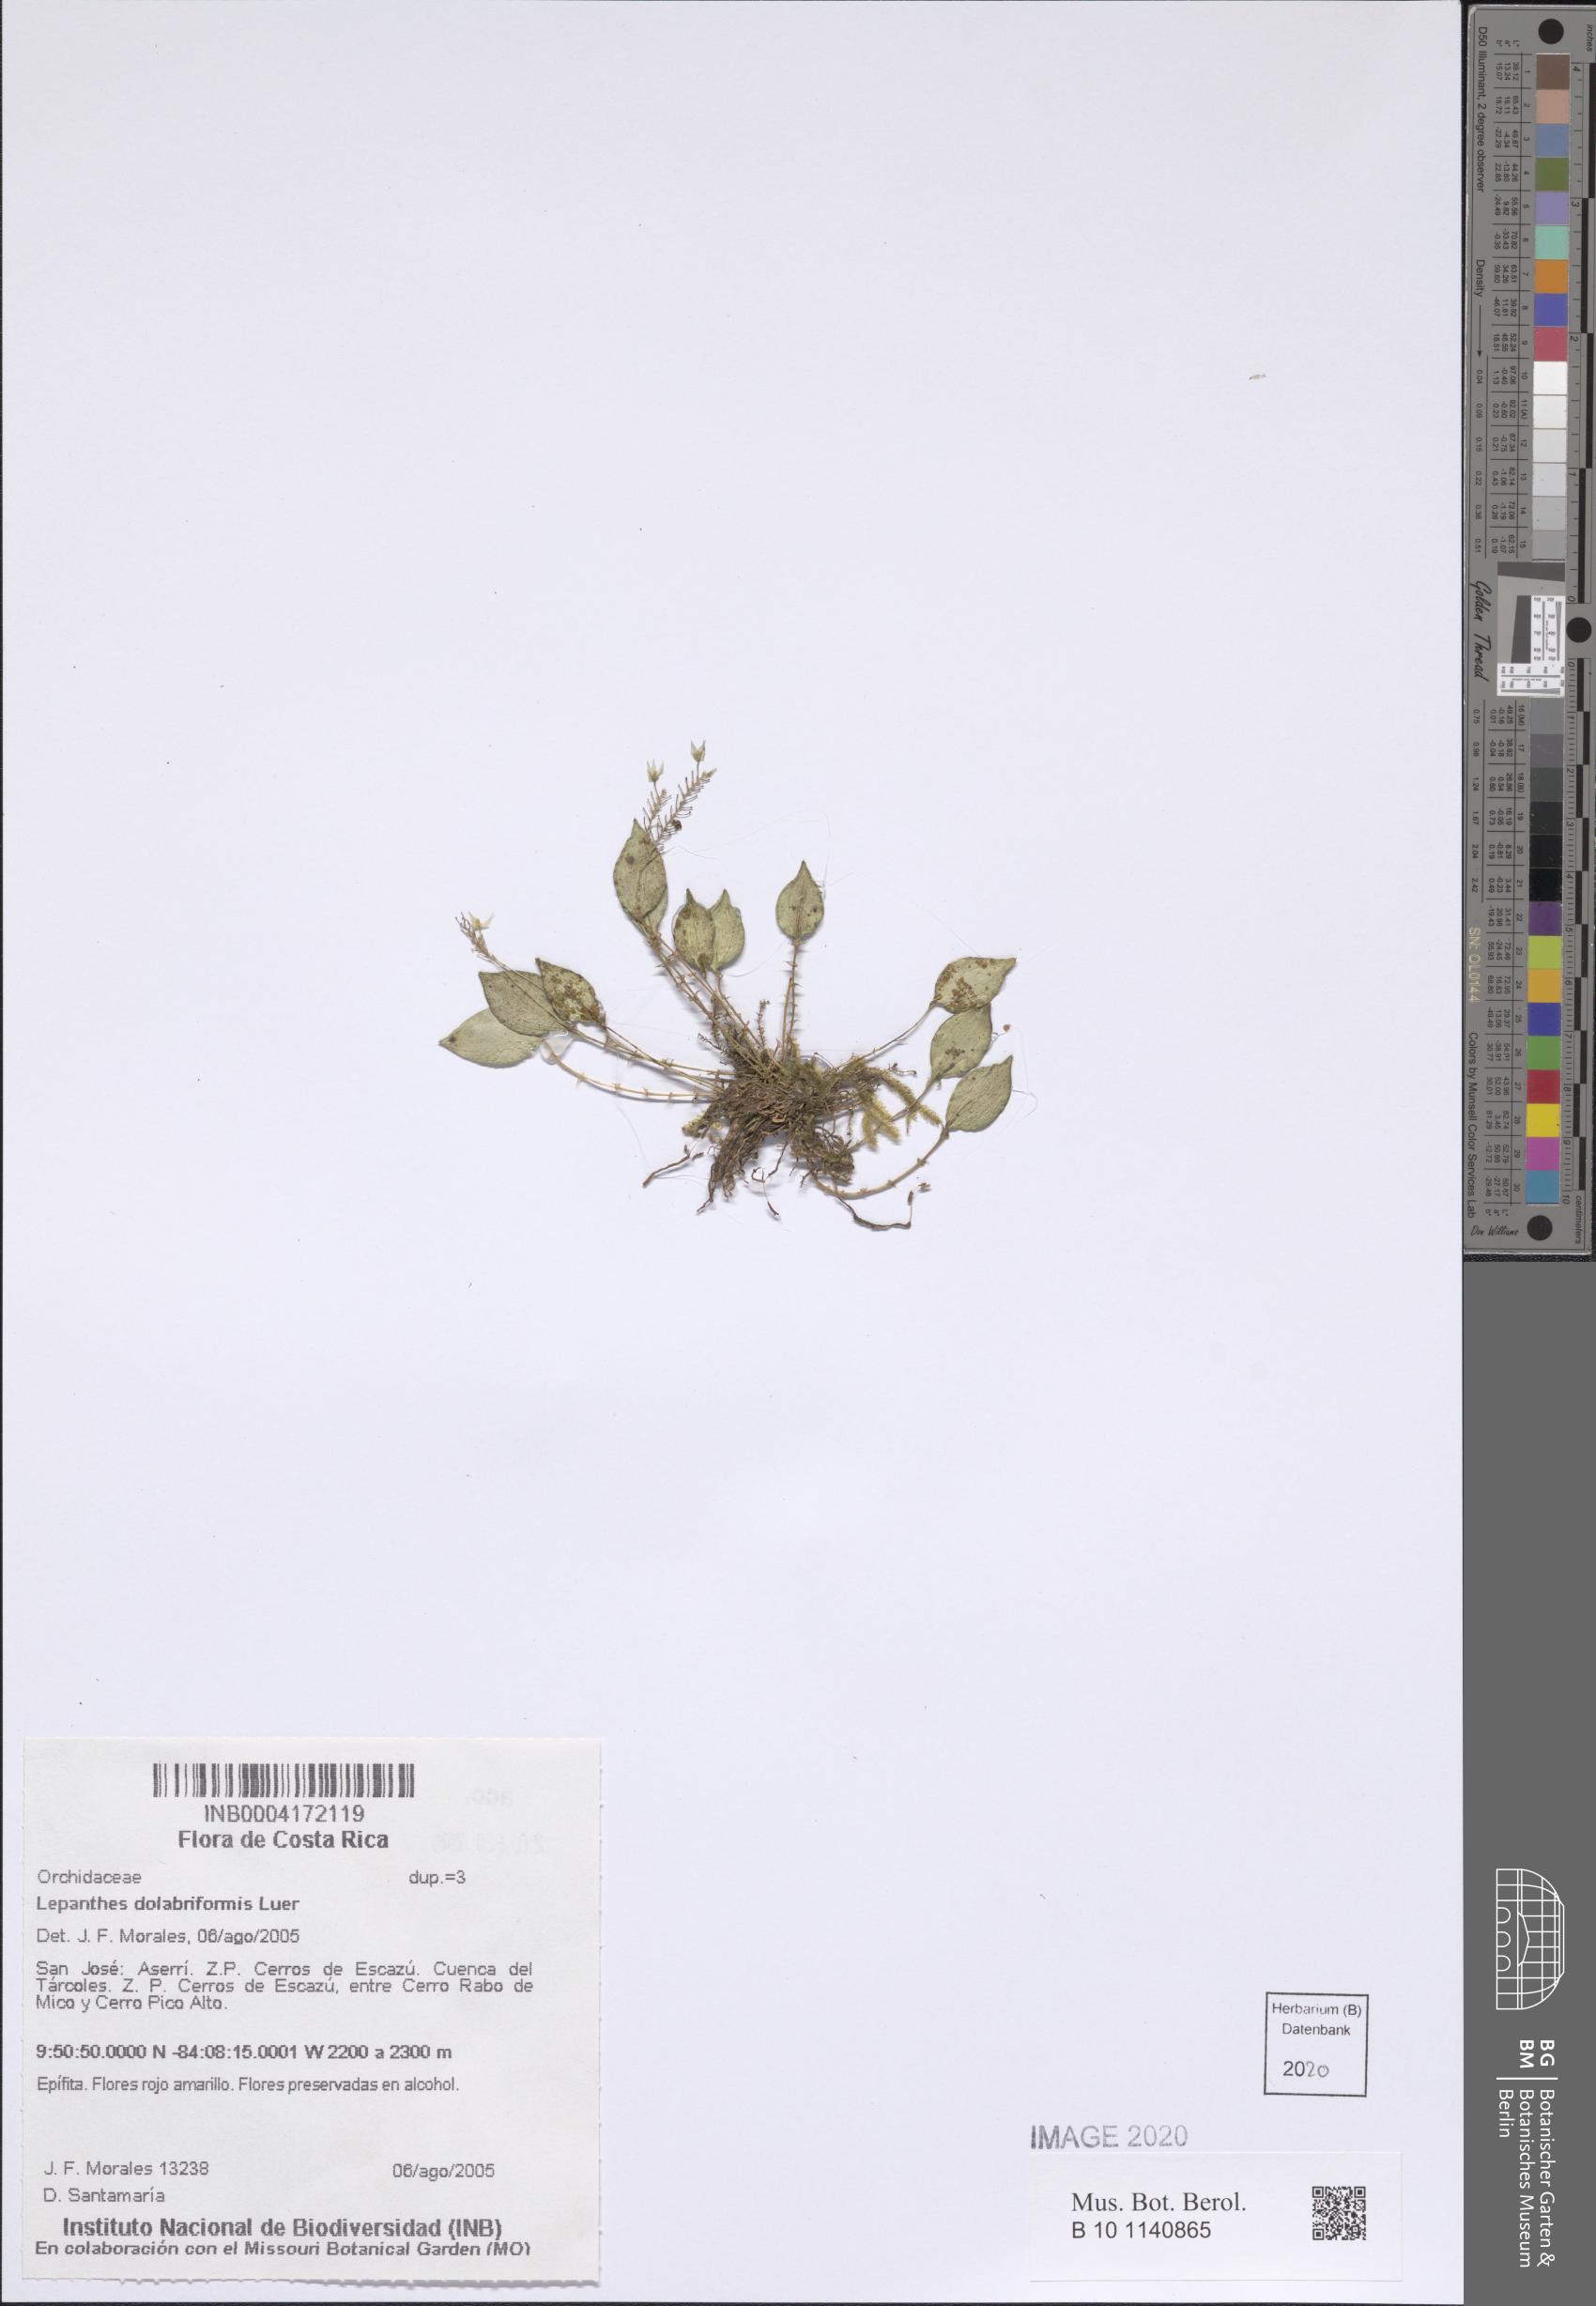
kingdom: Plantae
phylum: Tracheophyta
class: Liliopsida
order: Asparagales
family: Orchidaceae
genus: Lepanthes
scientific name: Lepanthes dolabriformis
